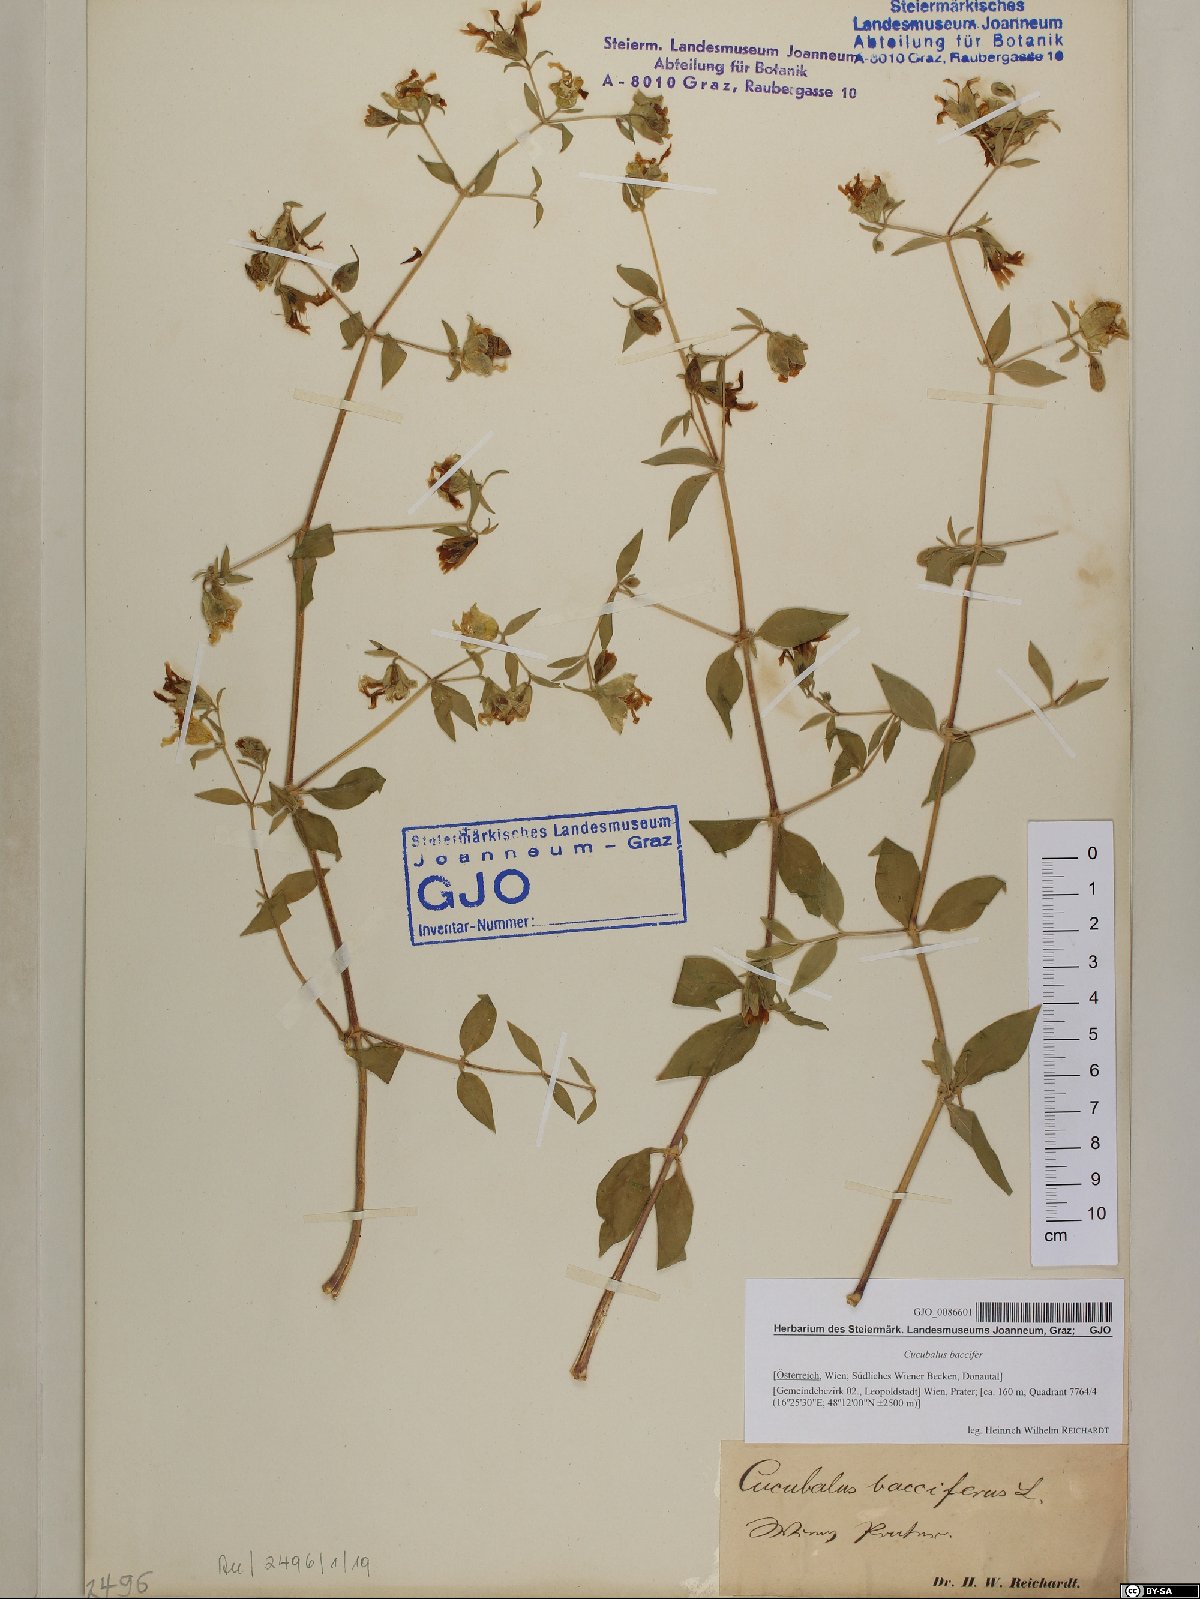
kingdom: Plantae
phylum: Tracheophyta
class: Magnoliopsida
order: Caryophyllales
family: Caryophyllaceae
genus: Silene
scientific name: Silene baccifera
